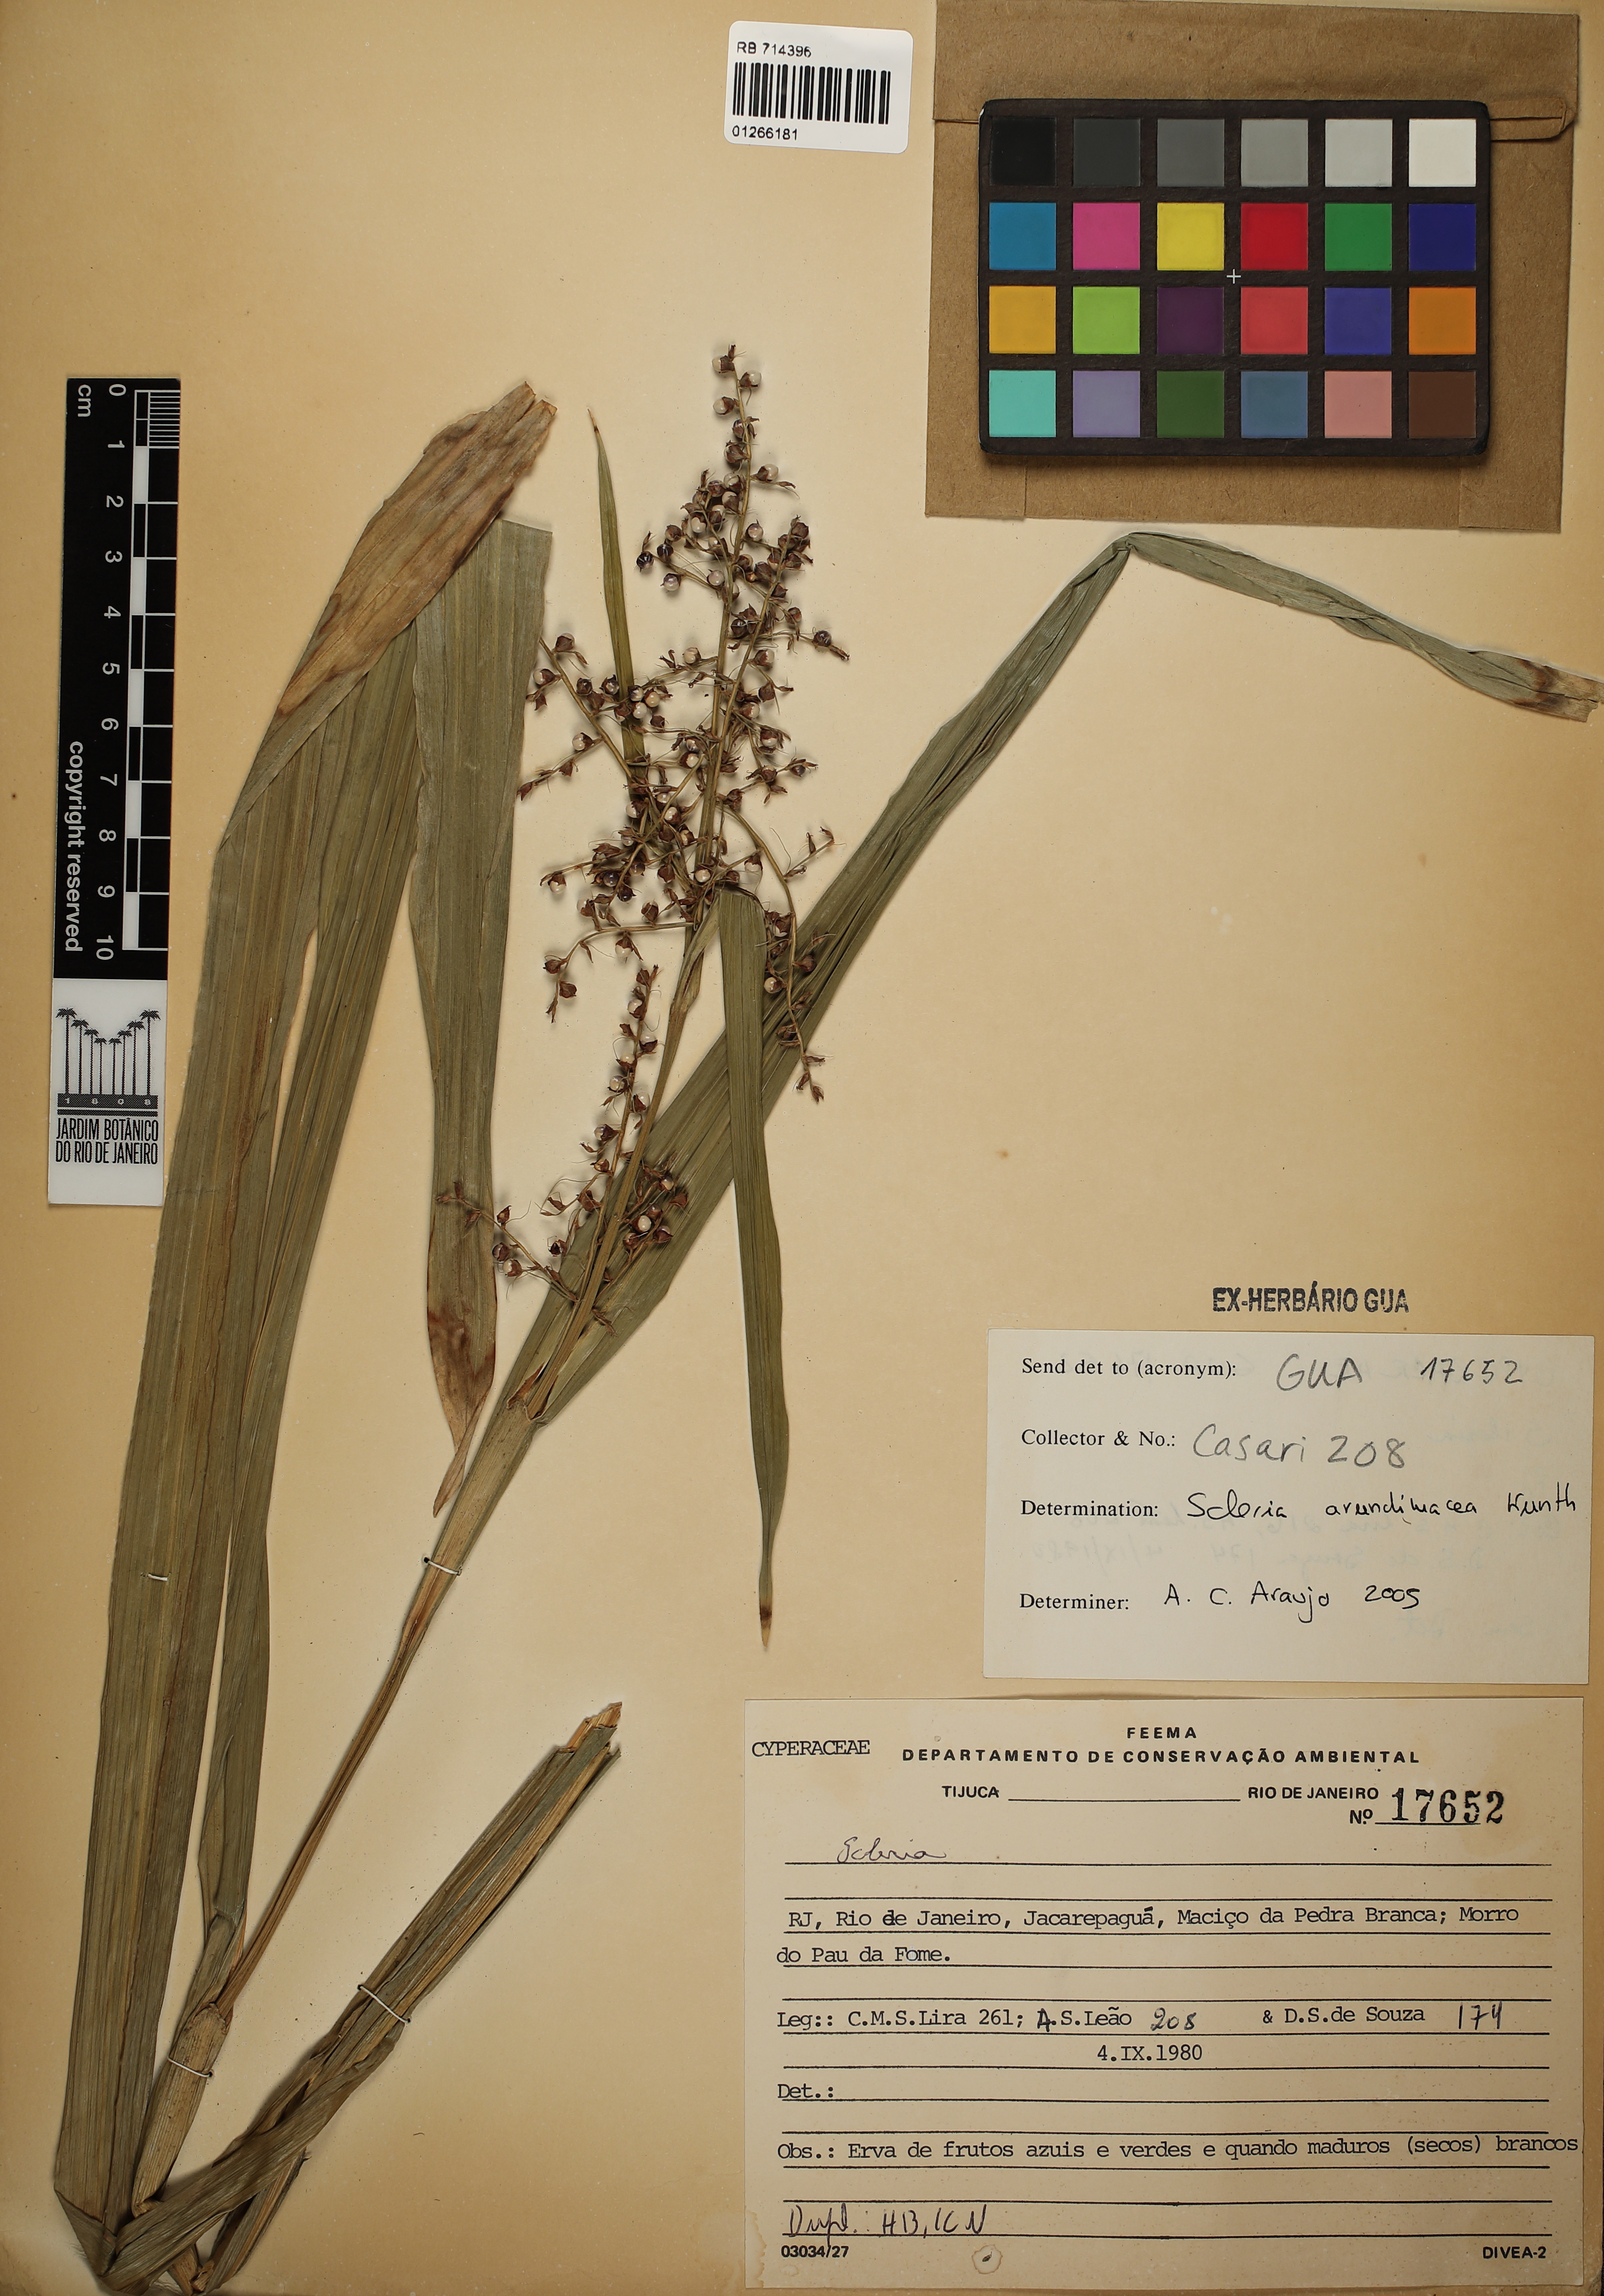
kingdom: Plantae
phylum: Tracheophyta
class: Liliopsida
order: Poales
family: Cyperaceae
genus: Scleria
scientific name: Scleria latifolia
